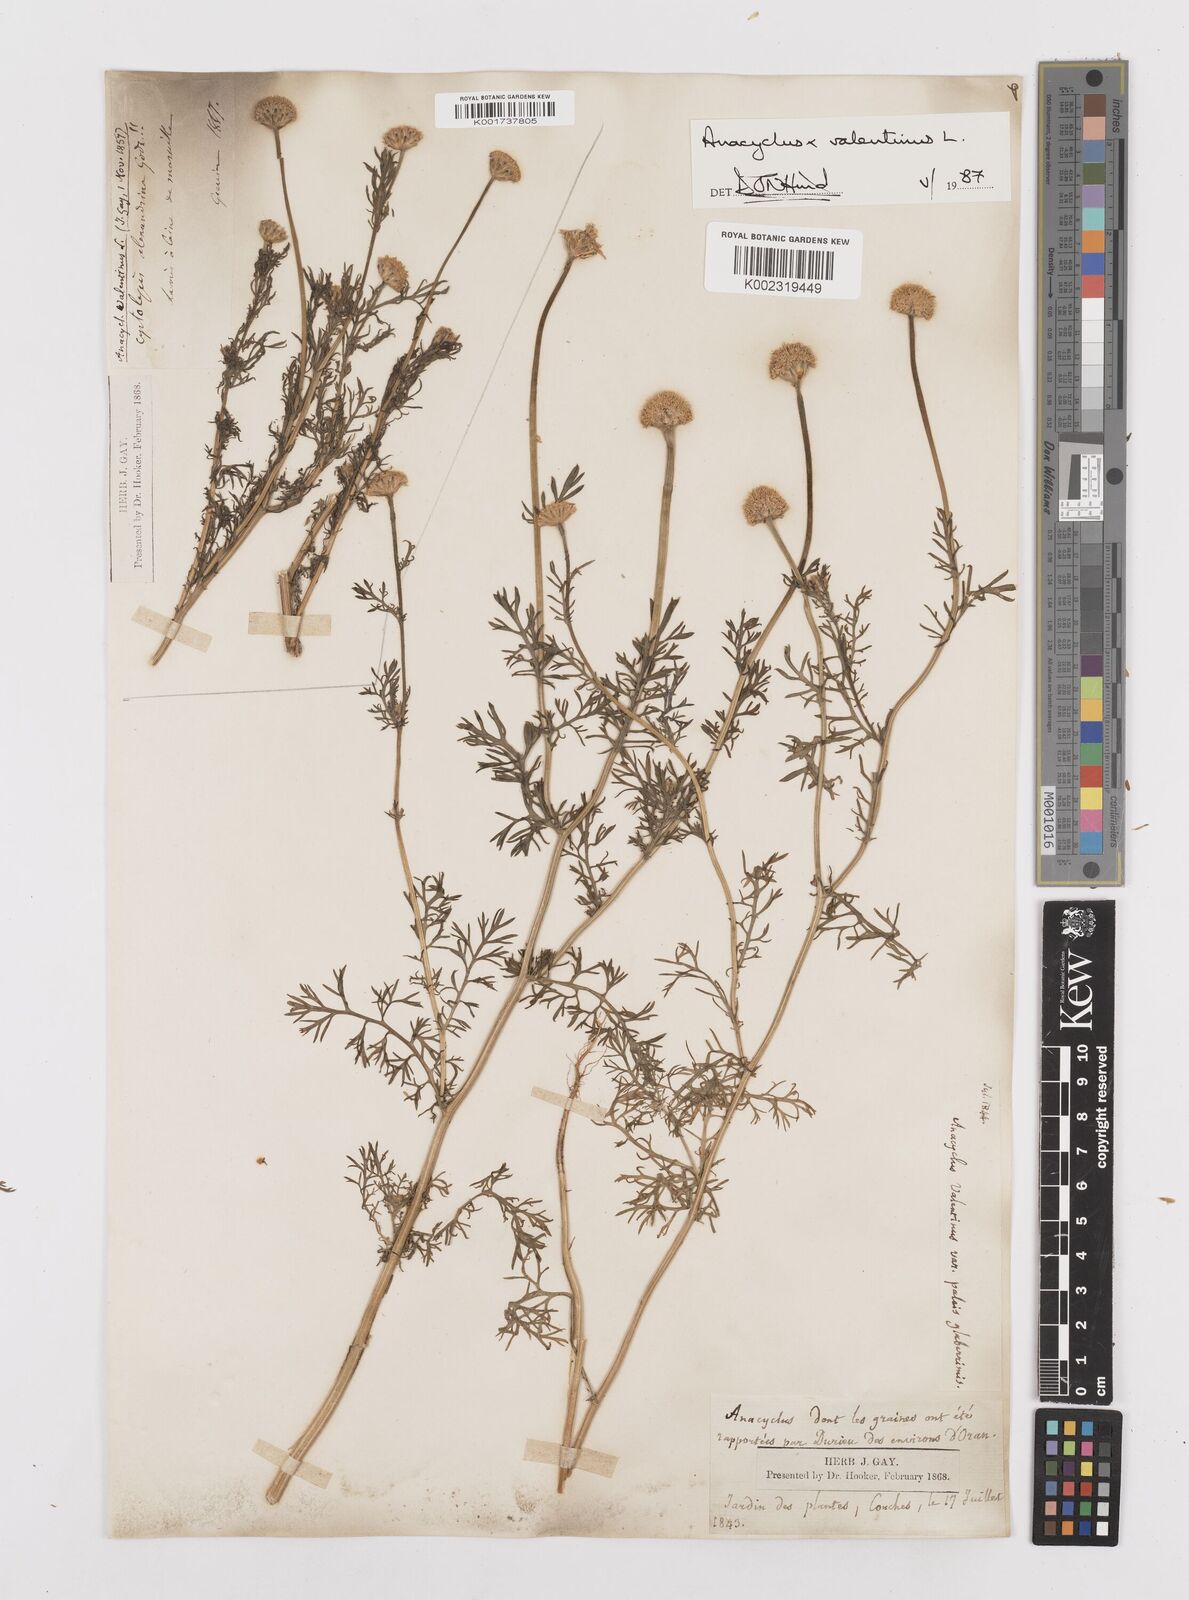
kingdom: Plantae
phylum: Tracheophyta
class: Magnoliopsida
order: Asterales
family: Asteraceae
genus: Anacyclus
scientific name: Anacyclus valentinus
